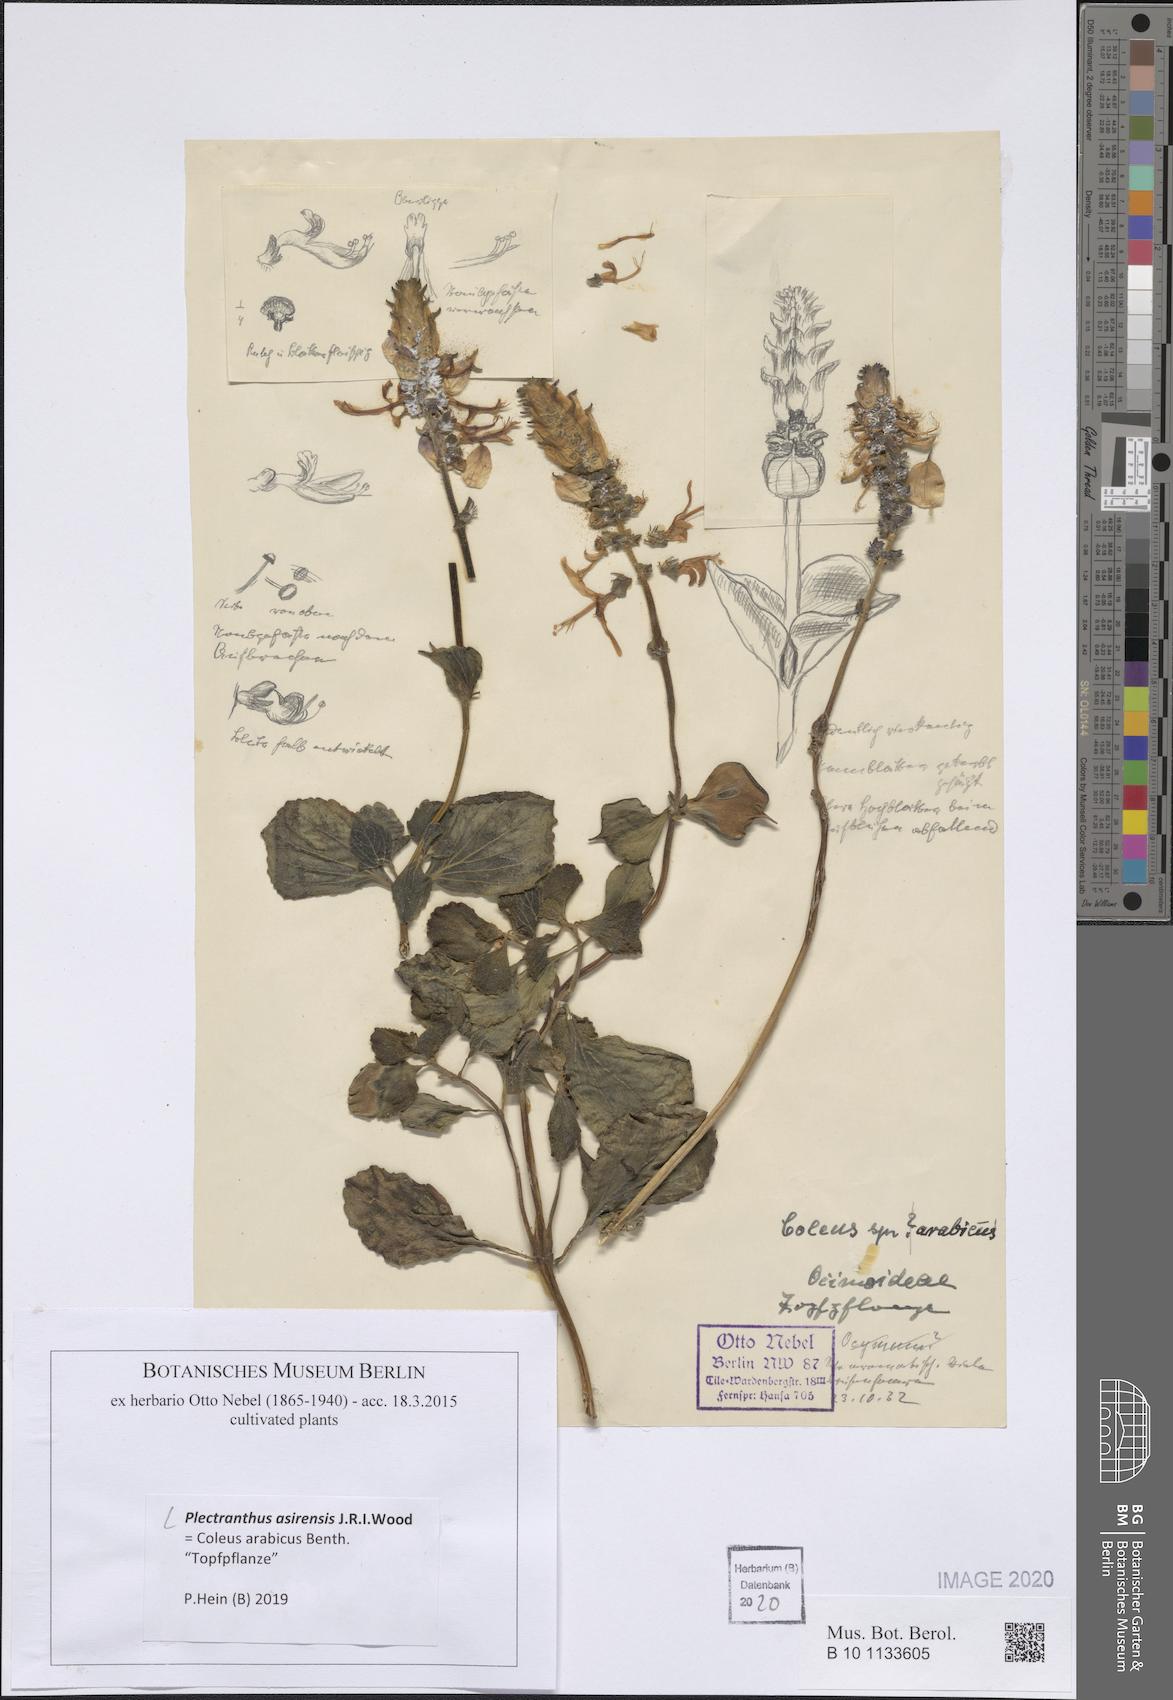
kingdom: Plantae
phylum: Tracheophyta
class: Magnoliopsida
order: Lamiales
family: Lamiaceae
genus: Coleus
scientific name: Coleus arabicus
